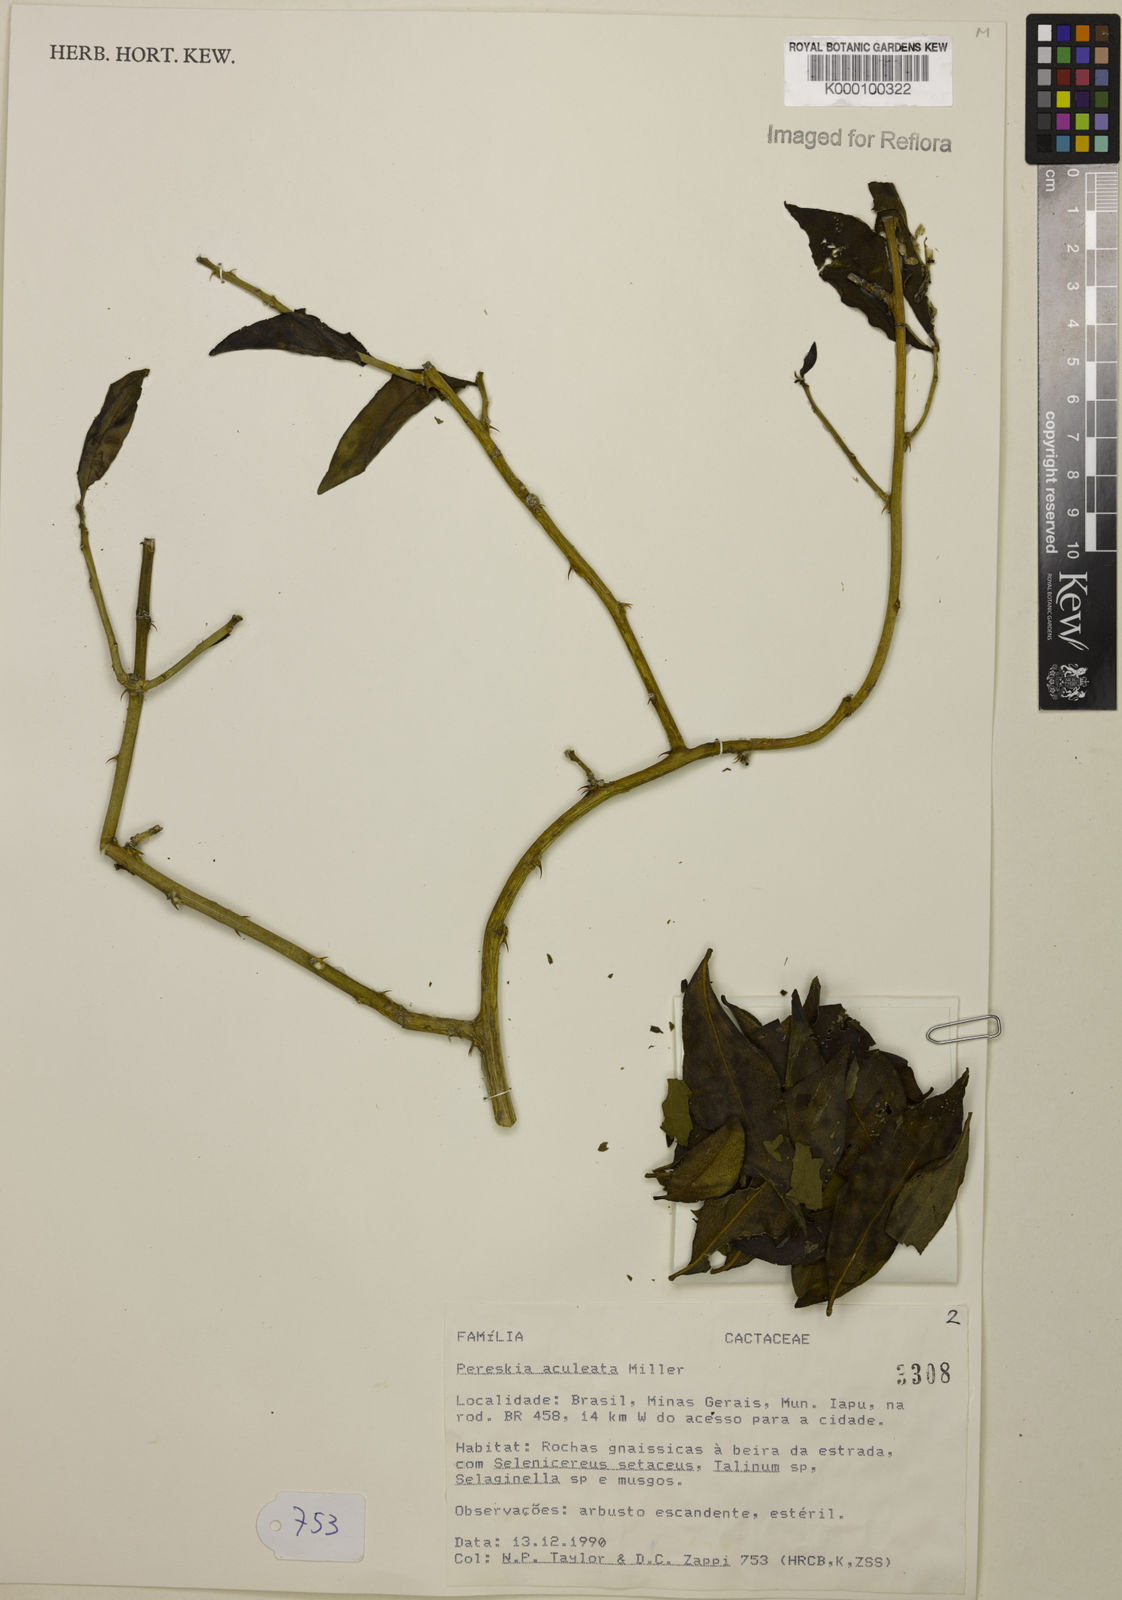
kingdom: Plantae
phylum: Tracheophyta
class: Magnoliopsida
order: Caryophyllales
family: Cactaceae
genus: Pereskia
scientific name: Pereskia aculeata
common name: Barbados gooseberry
